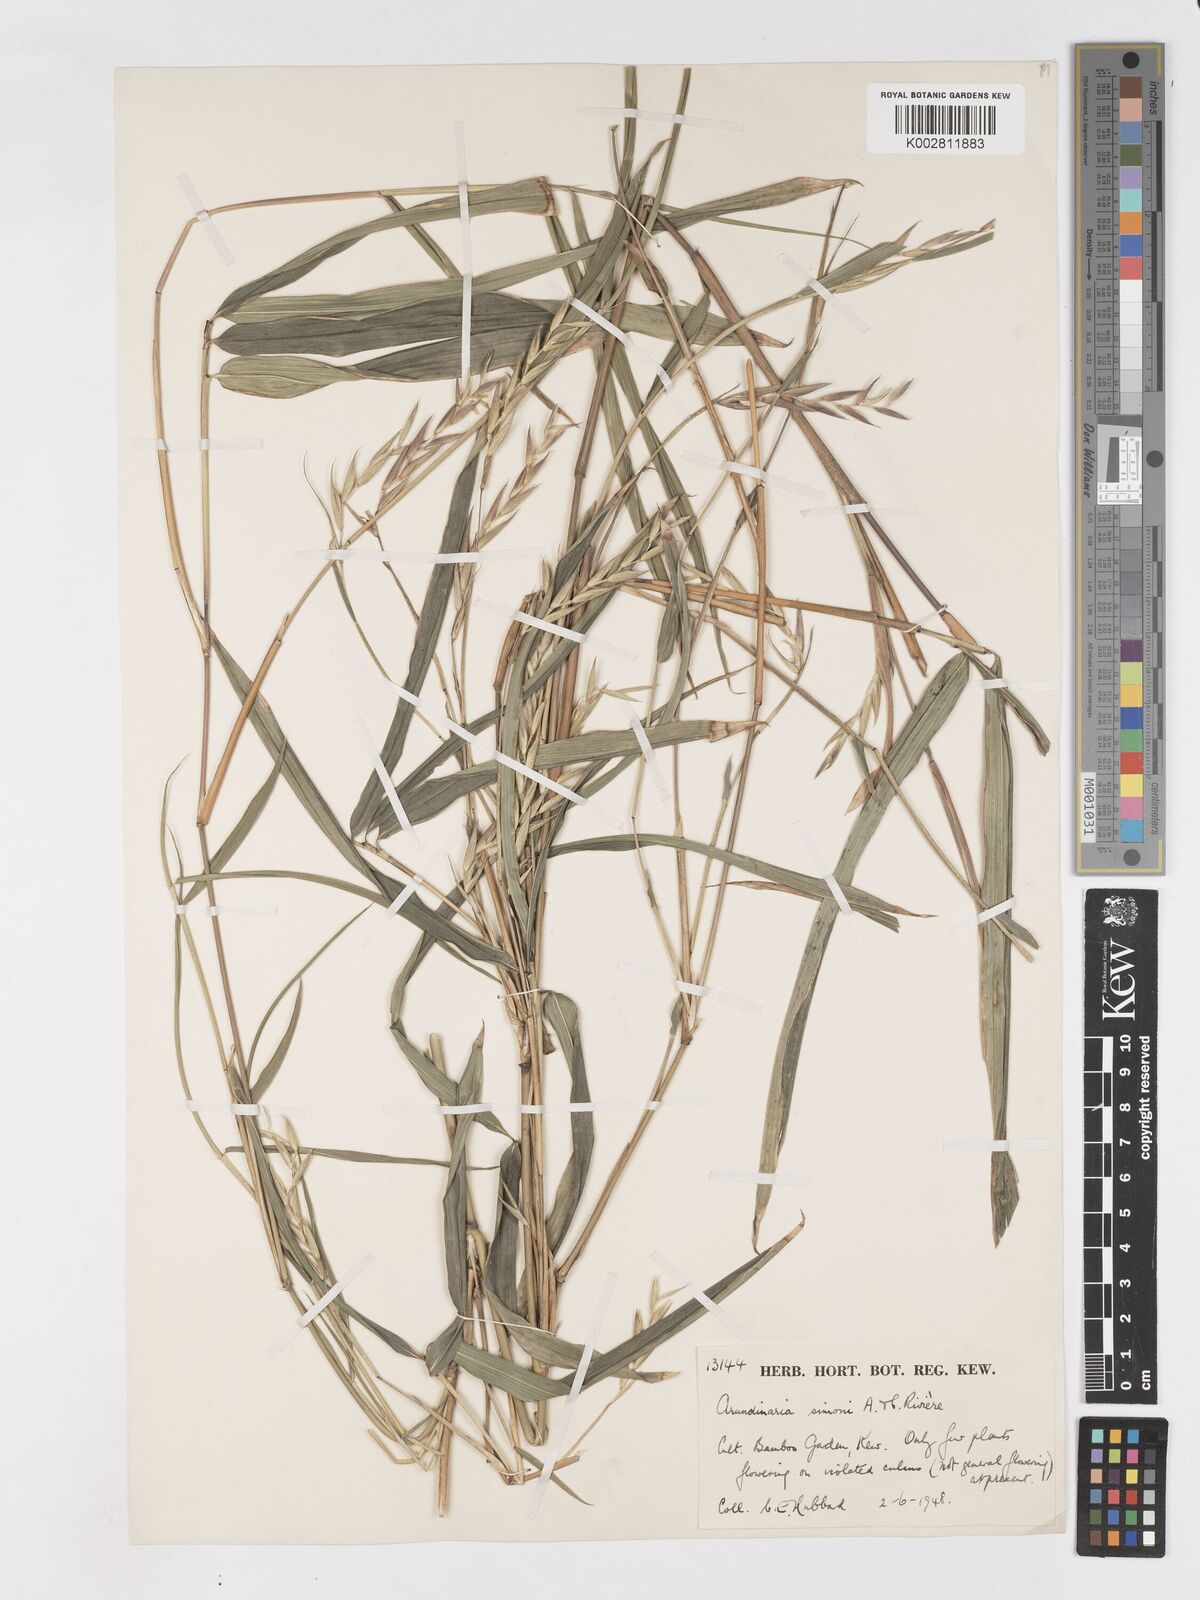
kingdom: Plantae
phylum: Tracheophyta
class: Liliopsida
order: Poales
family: Poaceae
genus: Pleioblastus
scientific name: Pleioblastus simonii
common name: Simon bamboo
